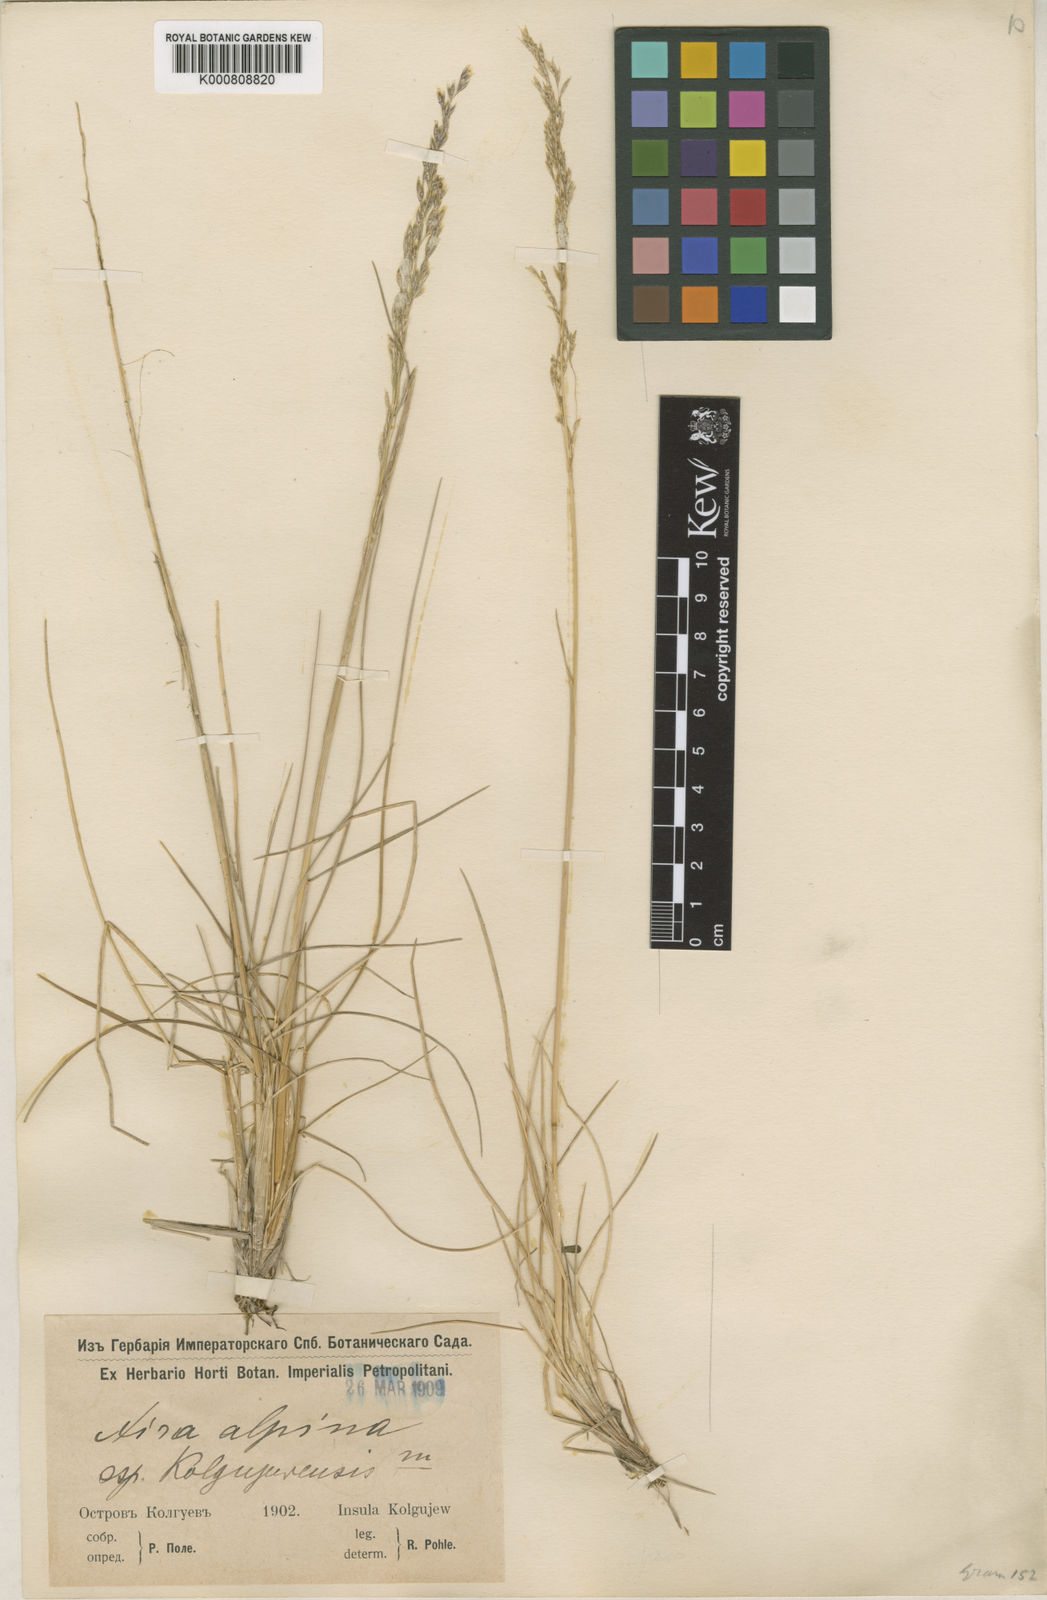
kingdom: Plantae
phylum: Tracheophyta
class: Liliopsida
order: Poales
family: Poaceae
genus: Deschampsia
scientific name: Deschampsia cespitosa
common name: Tufted hair-grass
